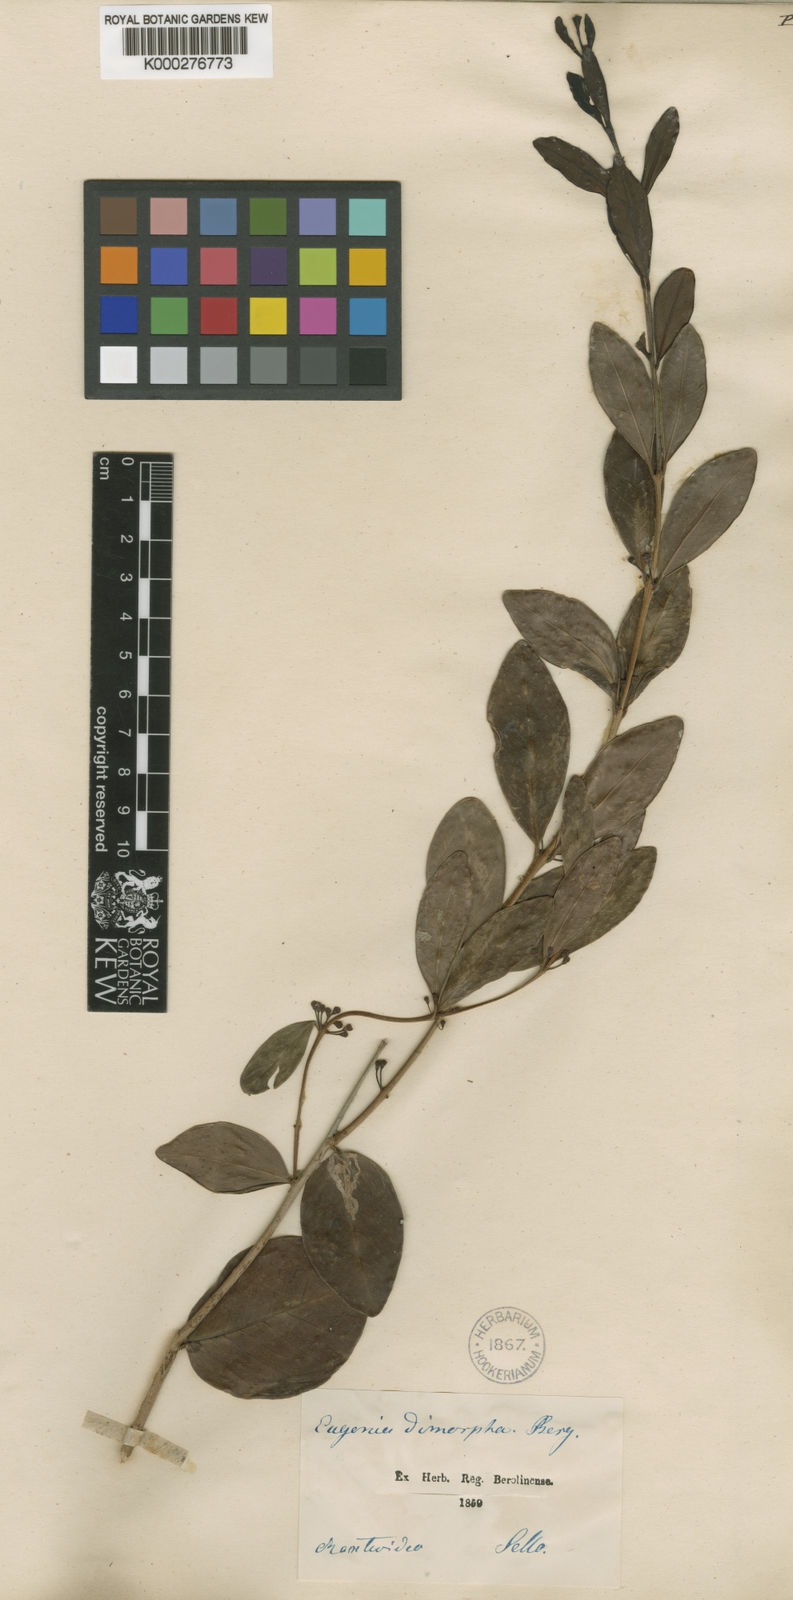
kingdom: Plantae
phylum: Tracheophyta
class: Magnoliopsida
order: Myrtales
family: Myrtaceae
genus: Eugenia
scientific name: Eugenia dimorpha
